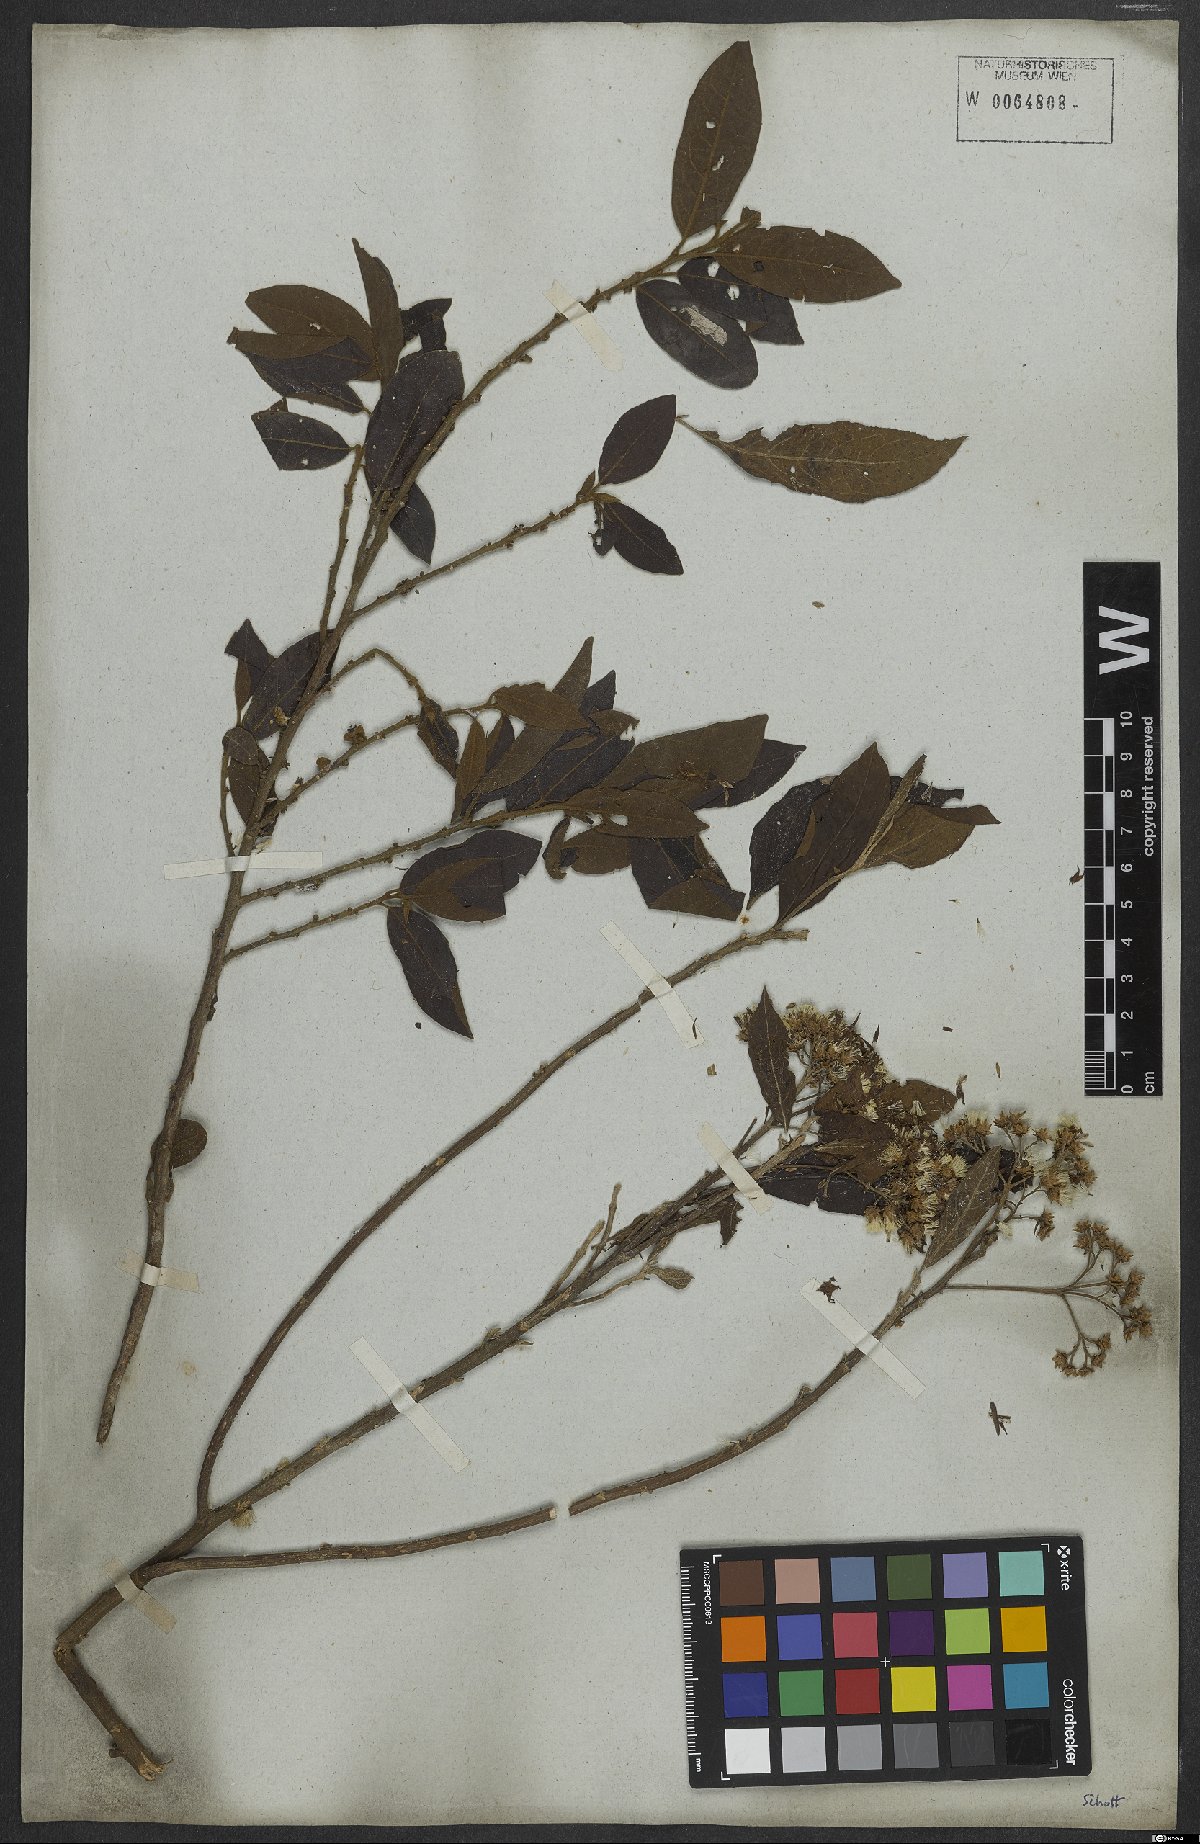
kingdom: Plantae
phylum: Tracheophyta
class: Magnoliopsida
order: Asterales
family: Asteraceae
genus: Cyrtocymura
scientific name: Cyrtocymura scorpioides
